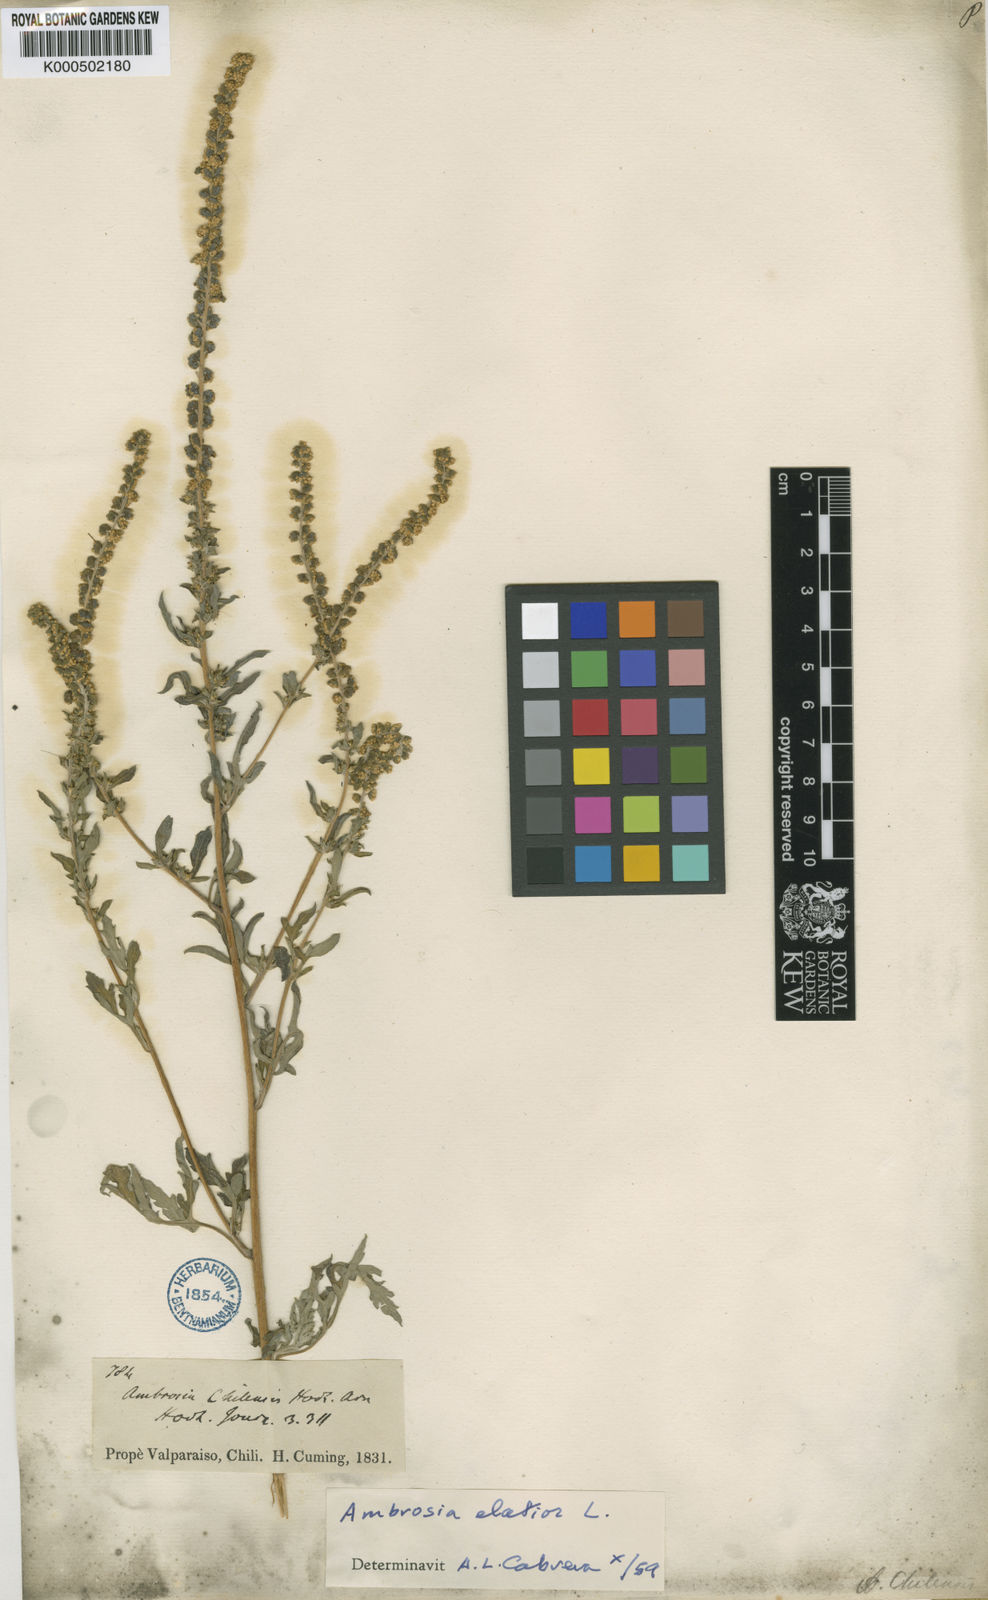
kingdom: Plantae
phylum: Tracheophyta
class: Magnoliopsida
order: Asterales
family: Asteraceae
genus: Ambrosia
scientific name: Ambrosia artemisiifolia
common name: Annual ragweed
